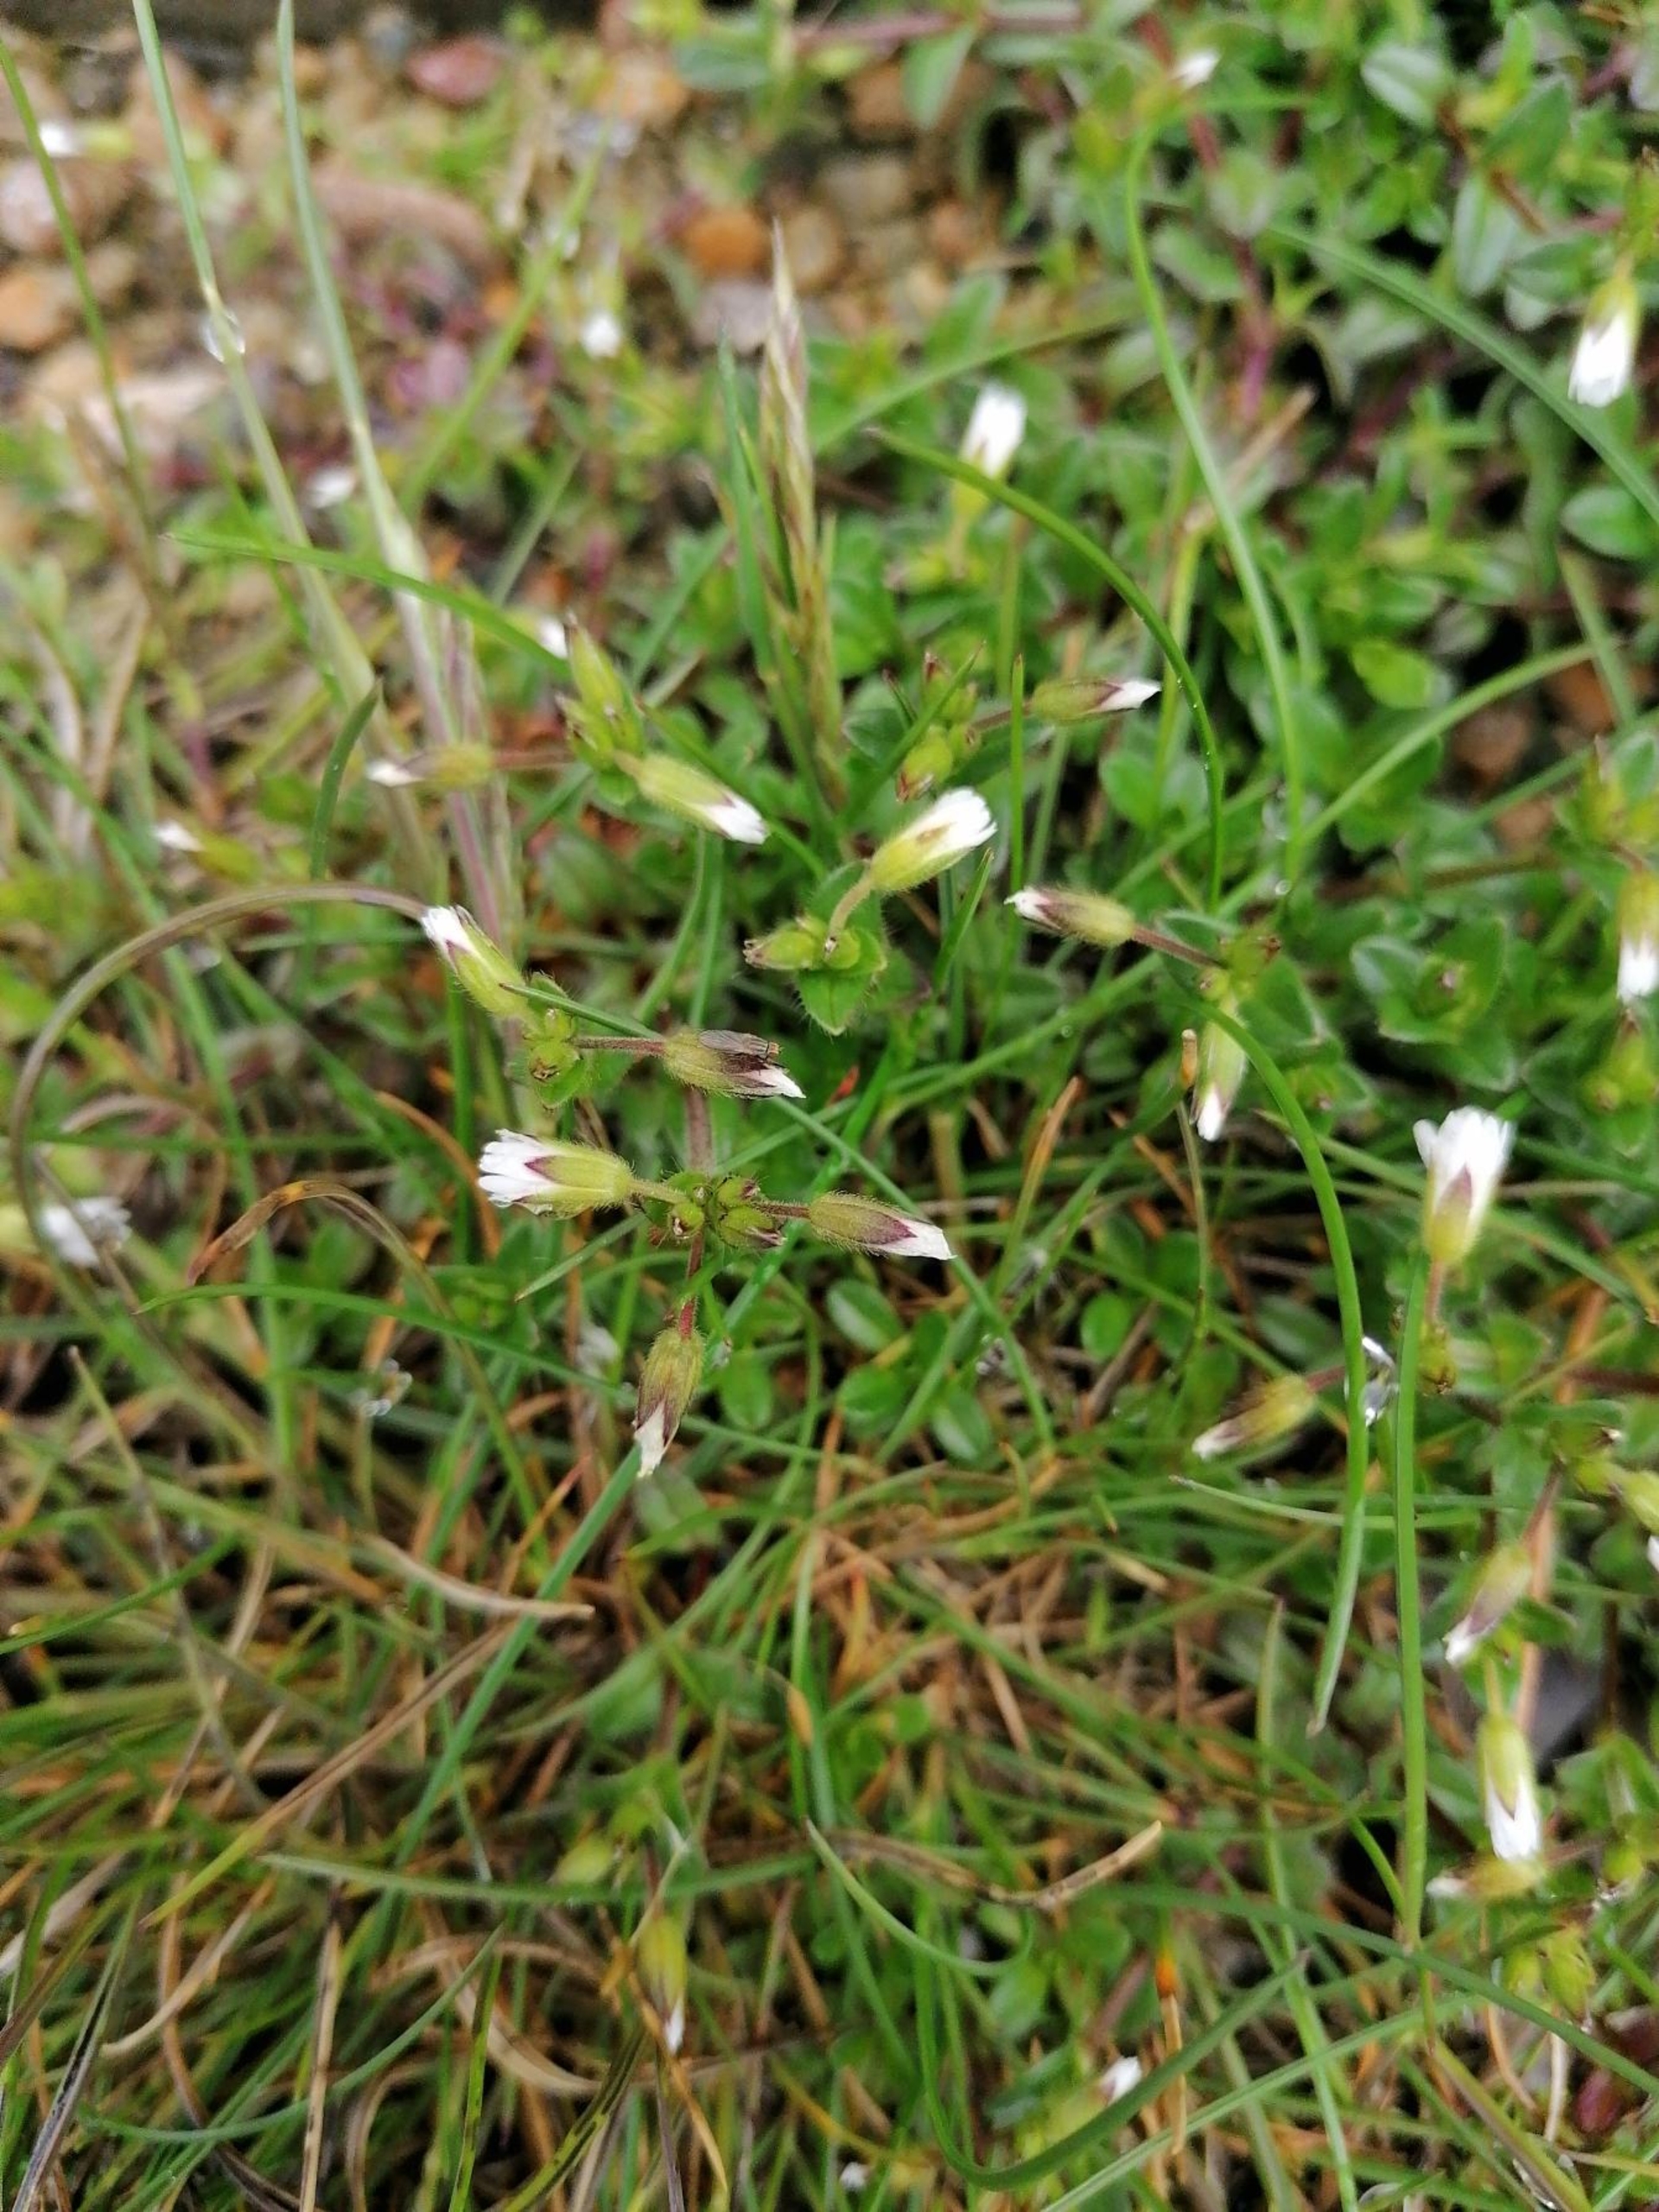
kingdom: Plantae
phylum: Tracheophyta
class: Magnoliopsida
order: Caryophyllales
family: Caryophyllaceae
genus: Cerastium
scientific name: Cerastium
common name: Hønsetarmslægten
